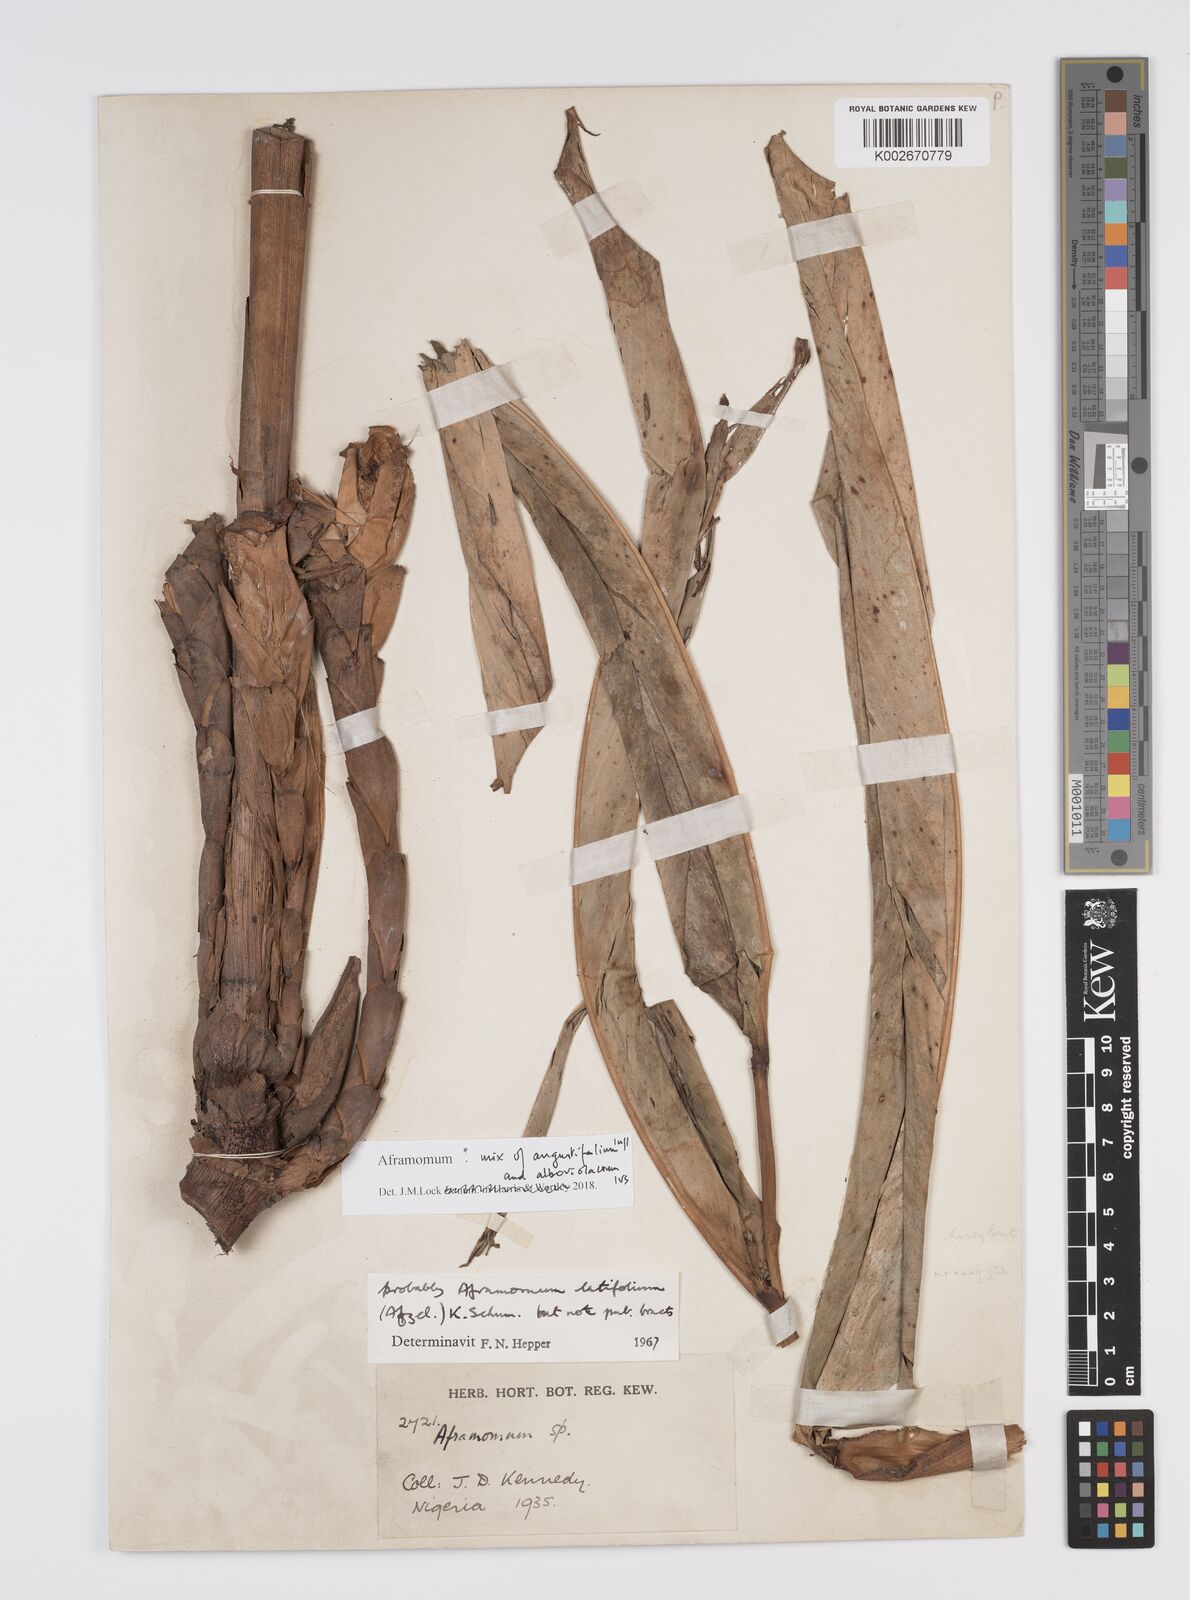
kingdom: Plantae
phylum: Tracheophyta
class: Liliopsida
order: Zingiberales
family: Zingiberaceae
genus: Aframomum
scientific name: Aframomum alboviolaceum
